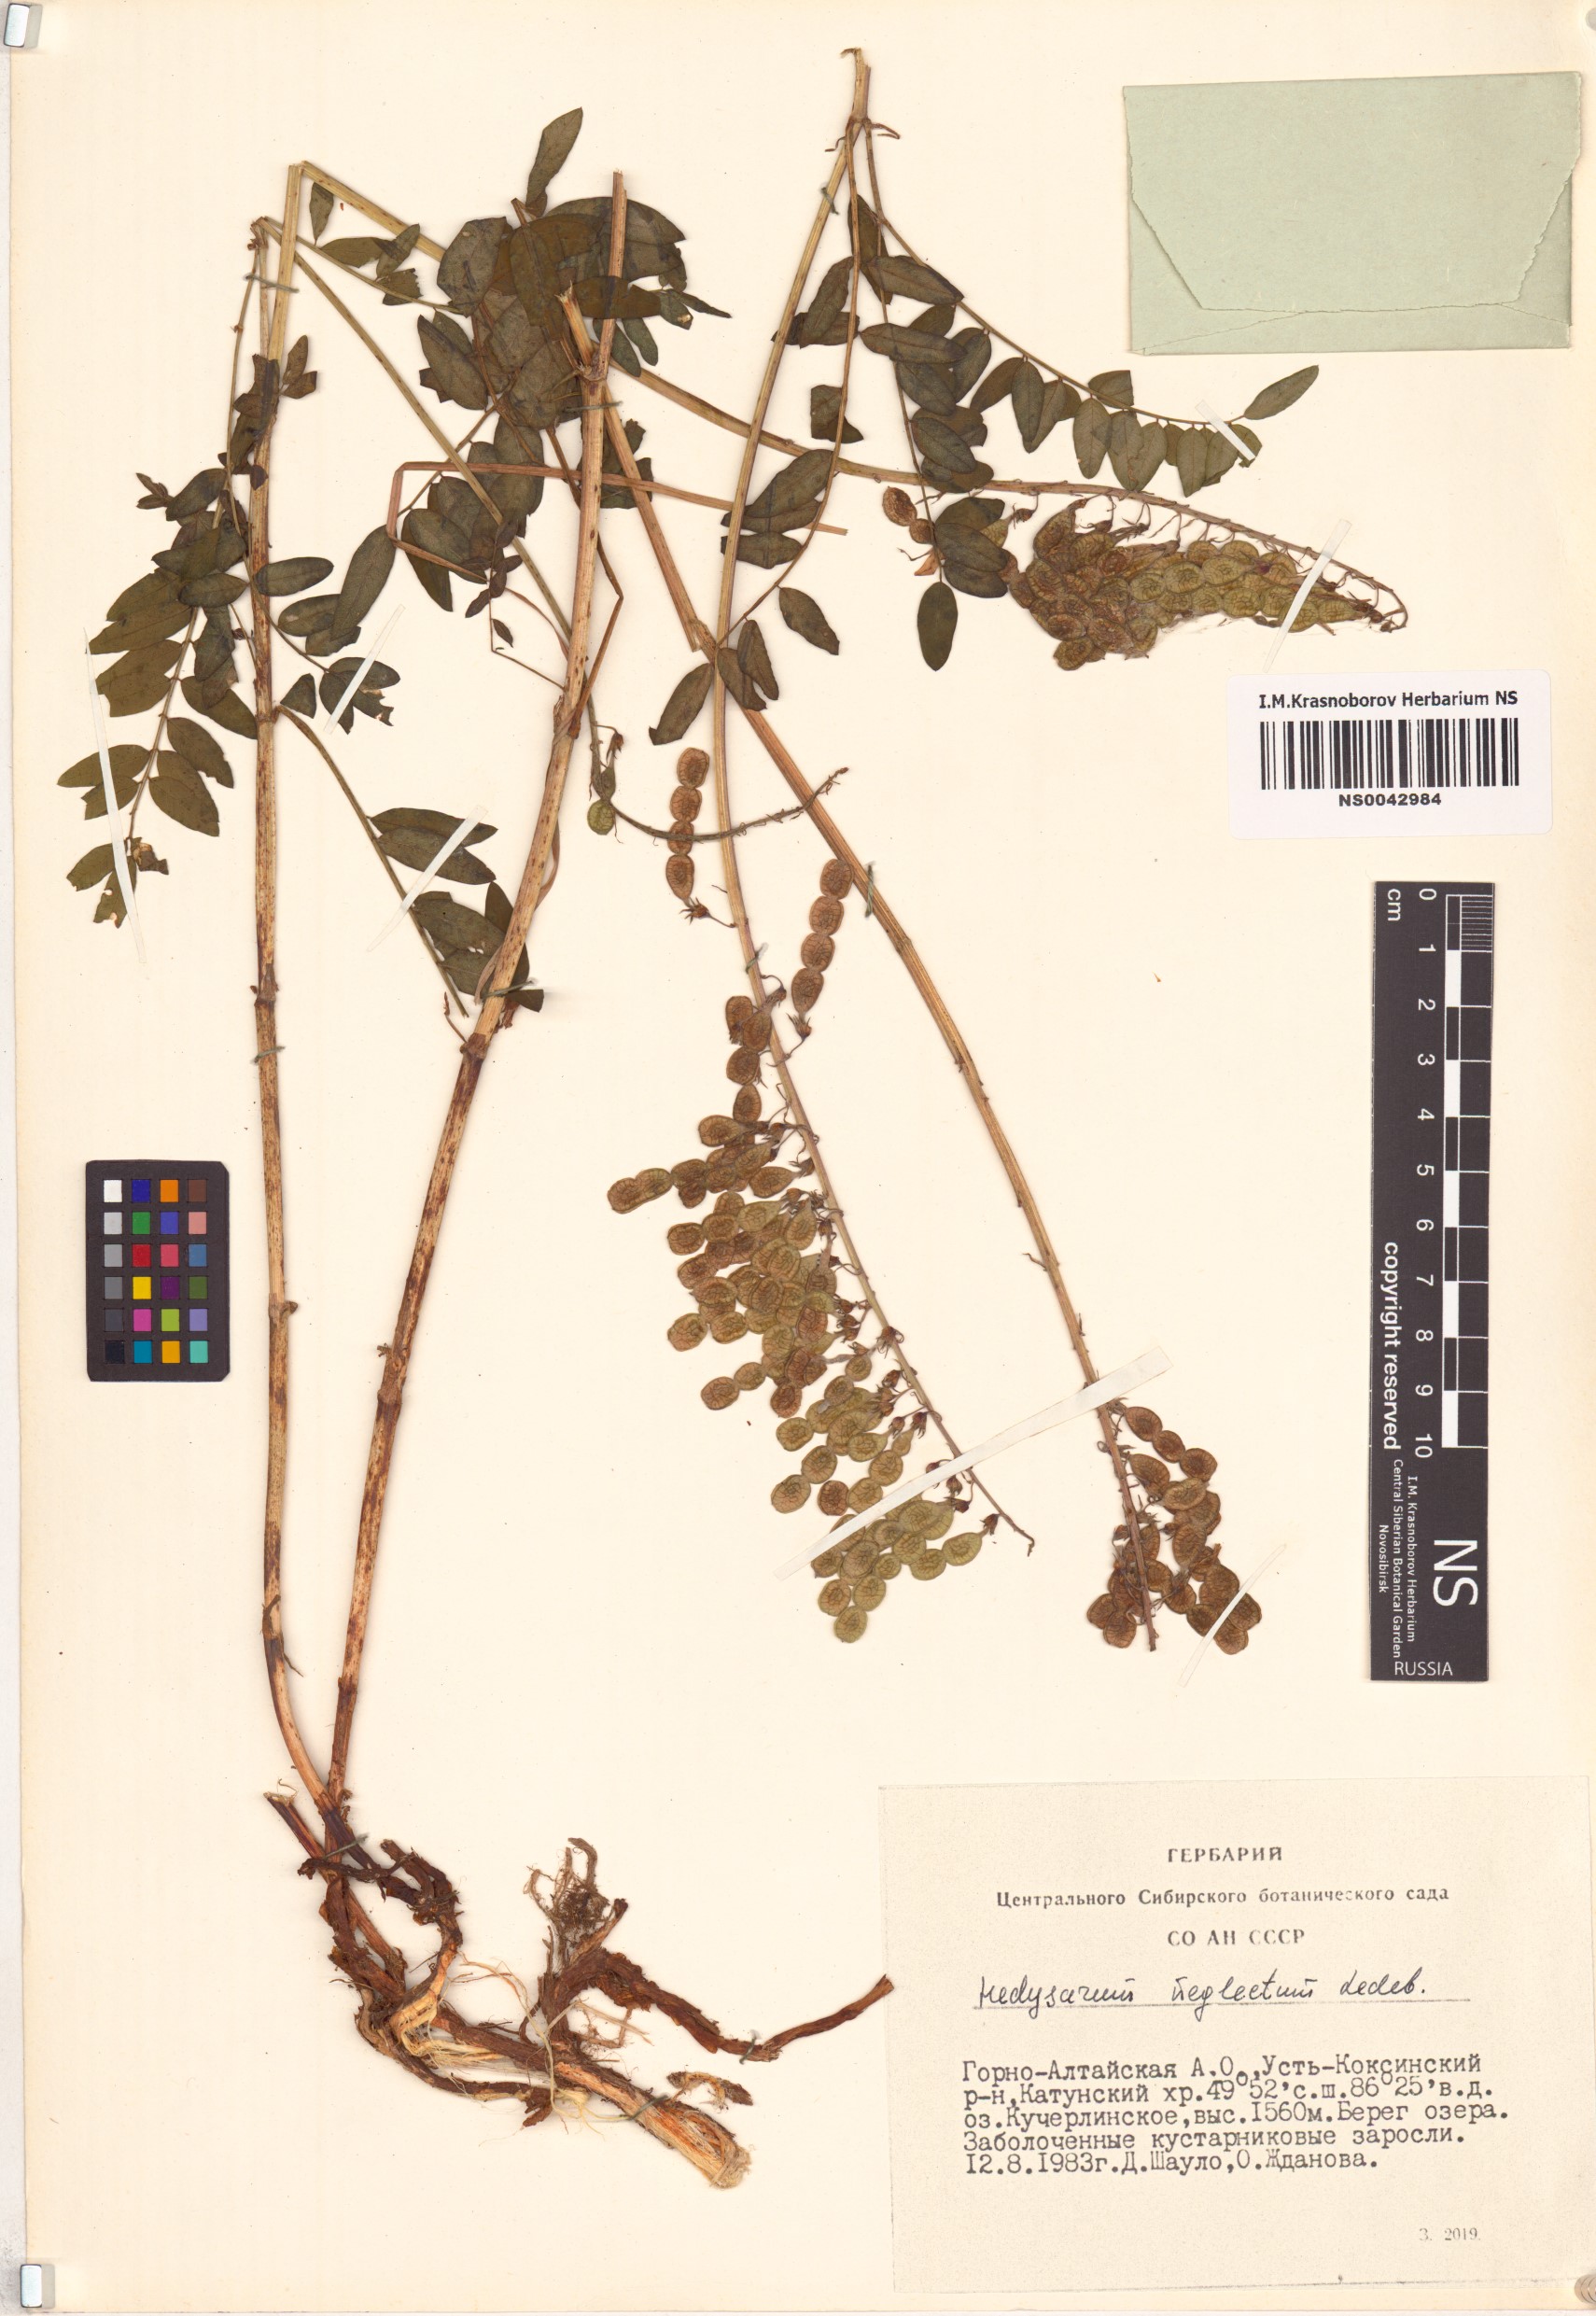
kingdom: Plantae
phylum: Tracheophyta
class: Magnoliopsida
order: Fabales
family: Fabaceae
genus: Hedysarum
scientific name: Hedysarum neglectum
